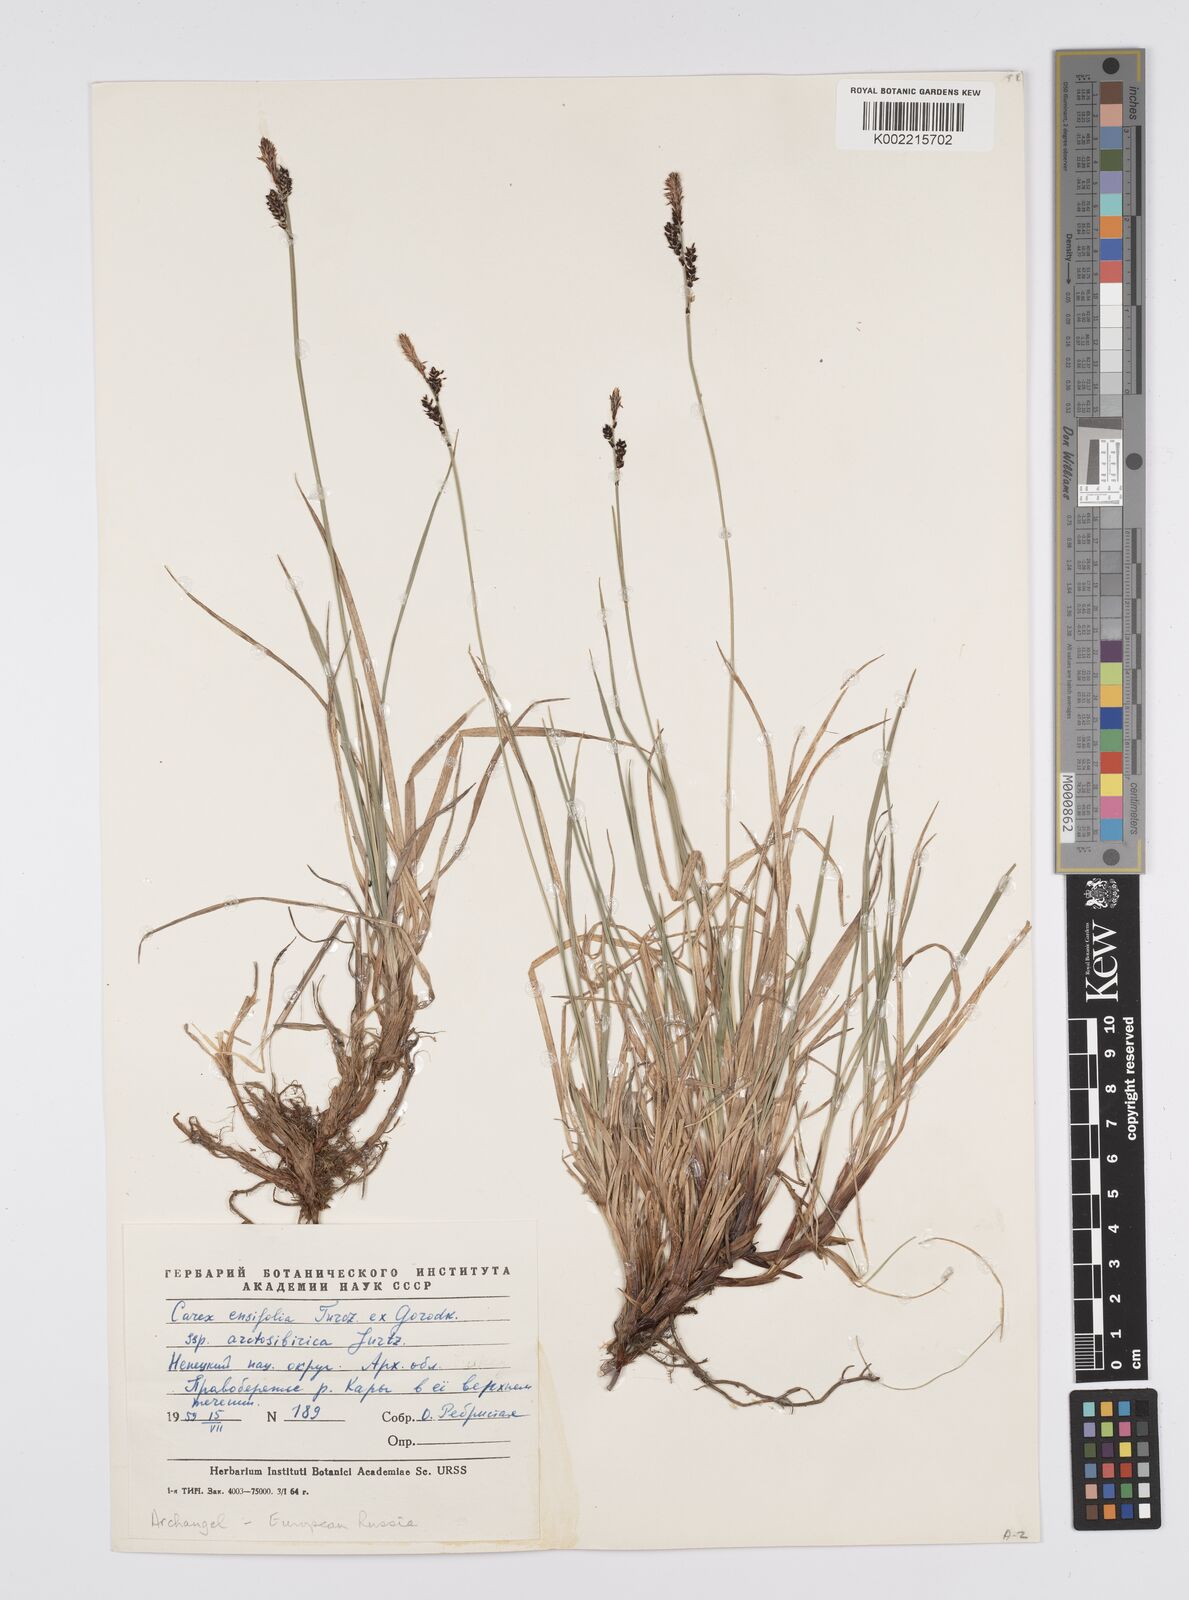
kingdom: Plantae
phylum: Tracheophyta
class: Liliopsida
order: Poales
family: Cyperaceae
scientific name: Cyperaceae
